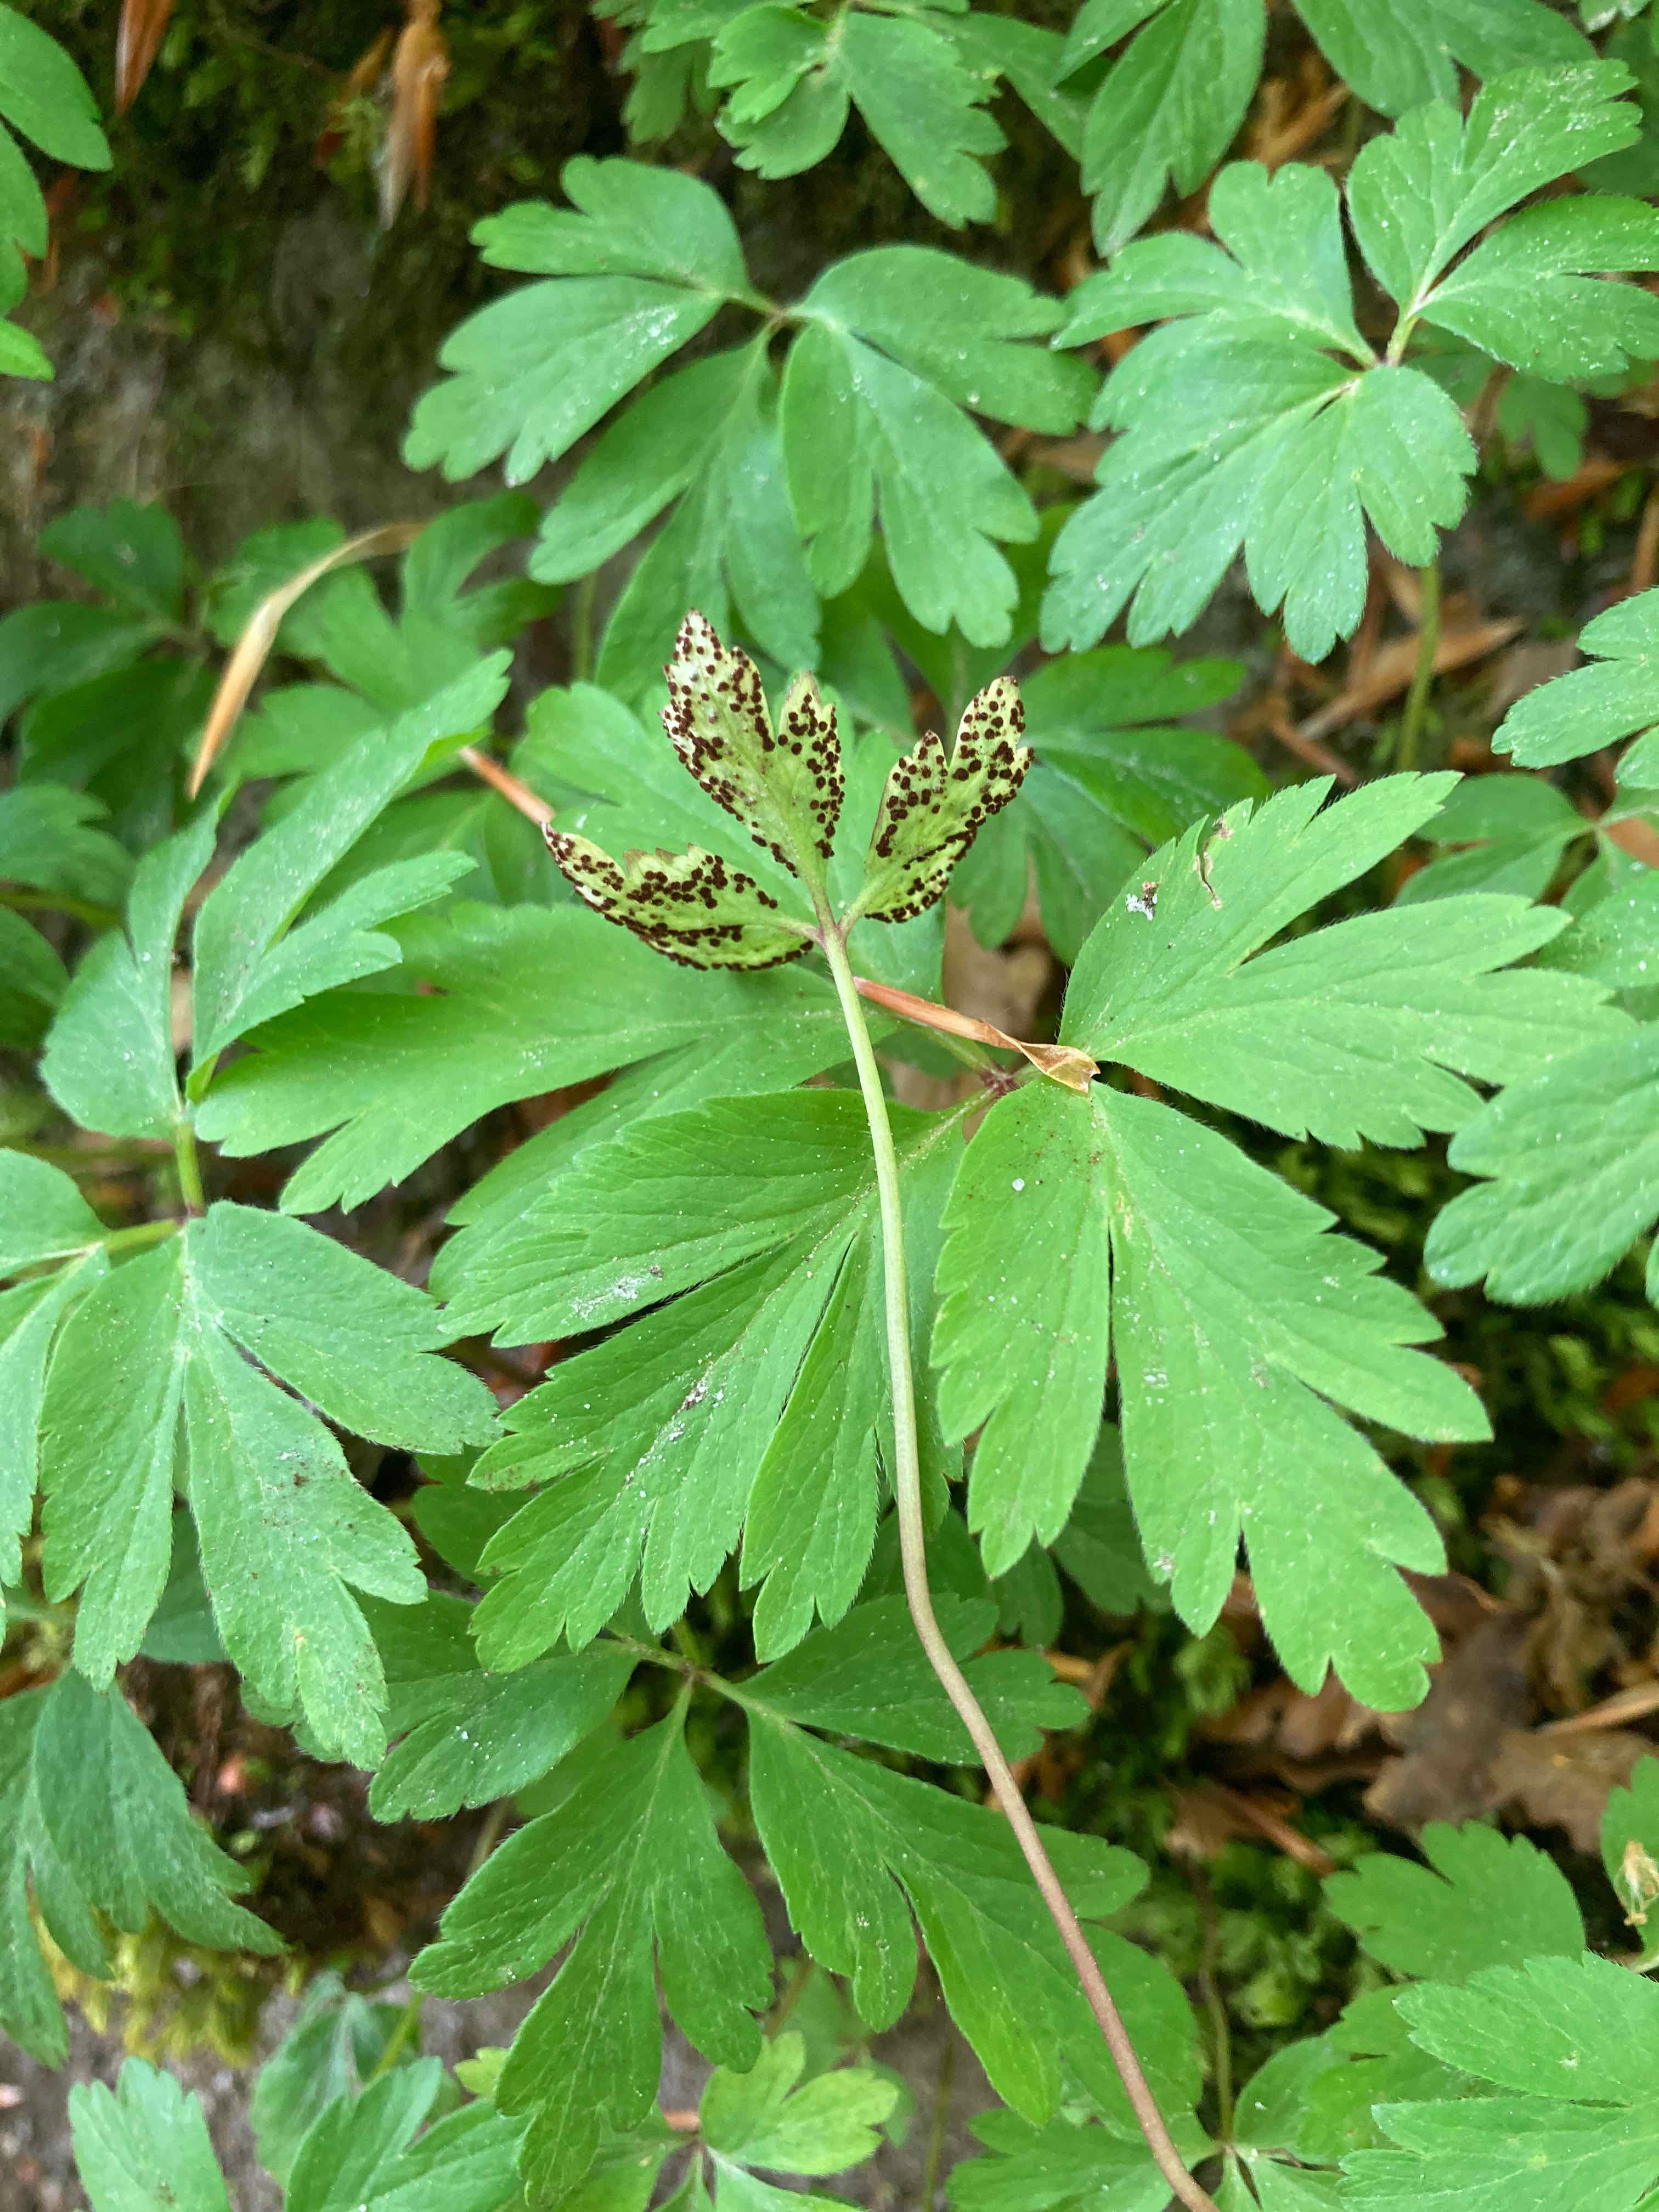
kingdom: Fungi
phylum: Basidiomycota
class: Pucciniomycetes
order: Pucciniales
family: Tranzscheliaceae
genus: Tranzschelia
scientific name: Tranzschelia anemones
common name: anemone-knæksporerust
